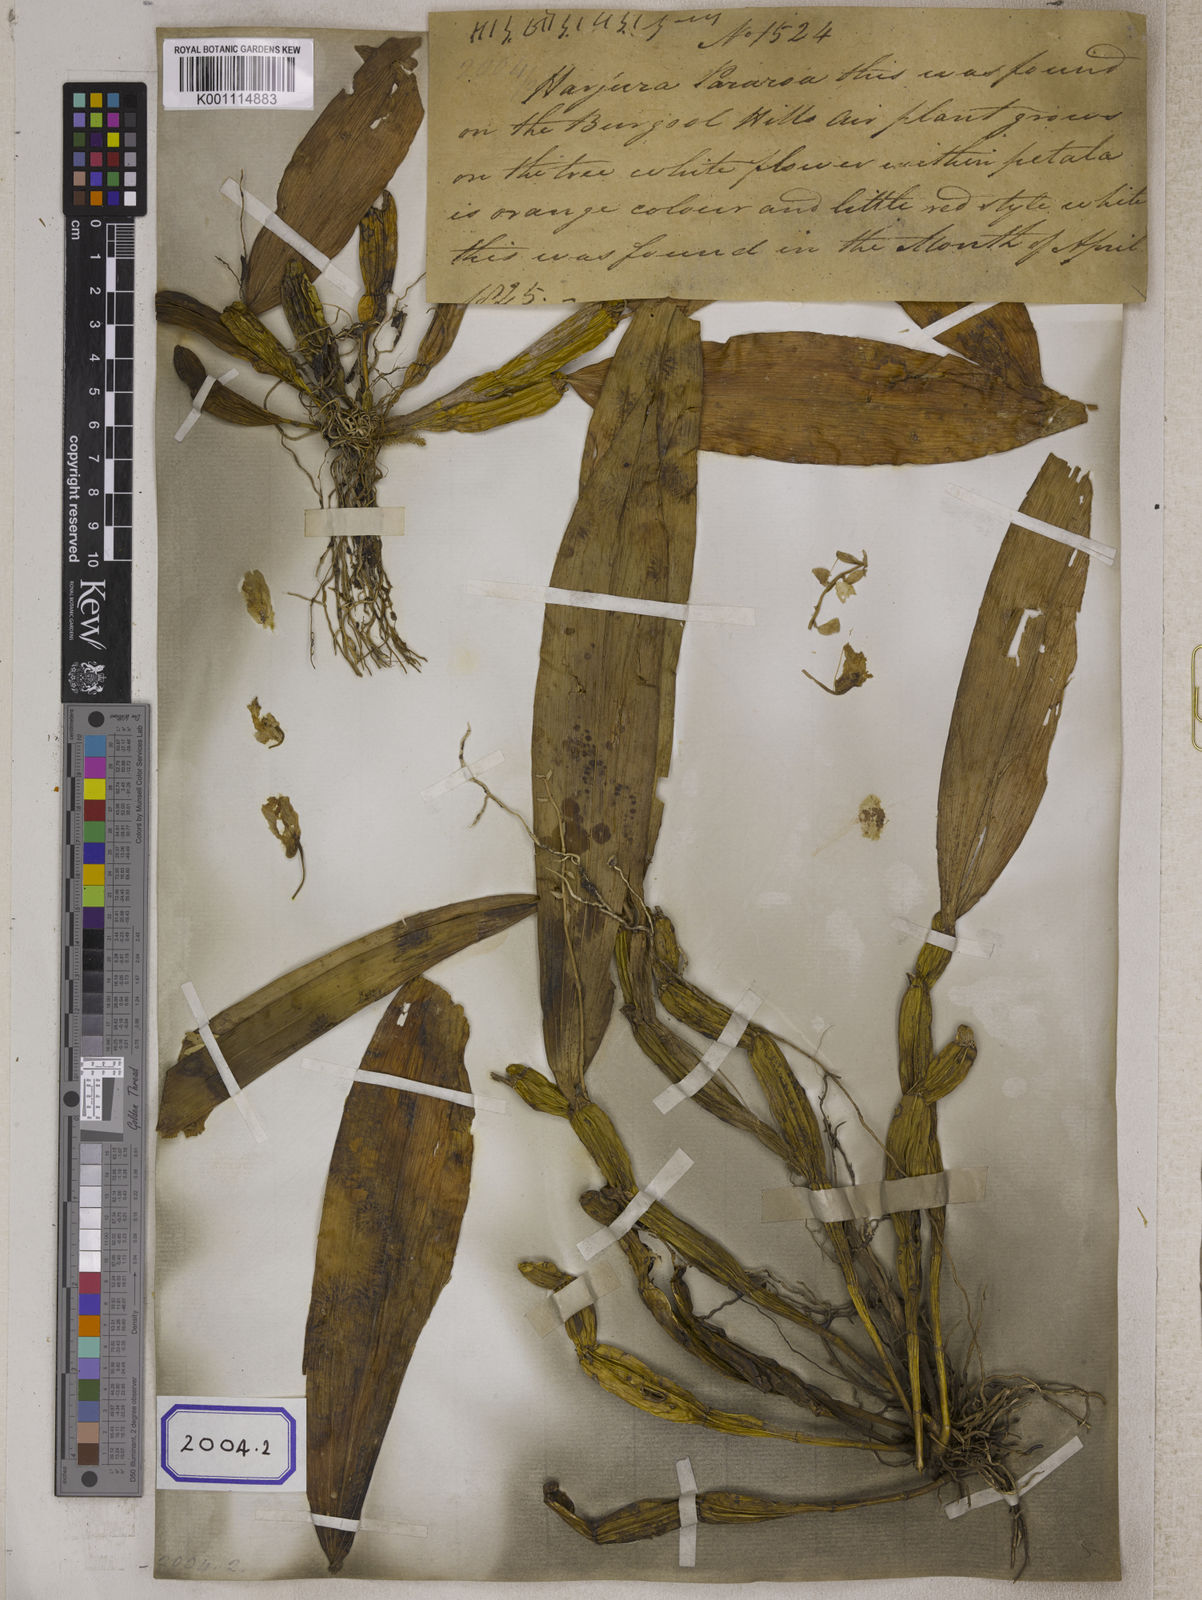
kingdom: Plantae
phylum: Tracheophyta
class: Liliopsida
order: Asparagales
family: Orchidaceae
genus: Dendrobium
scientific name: Dendrobium
